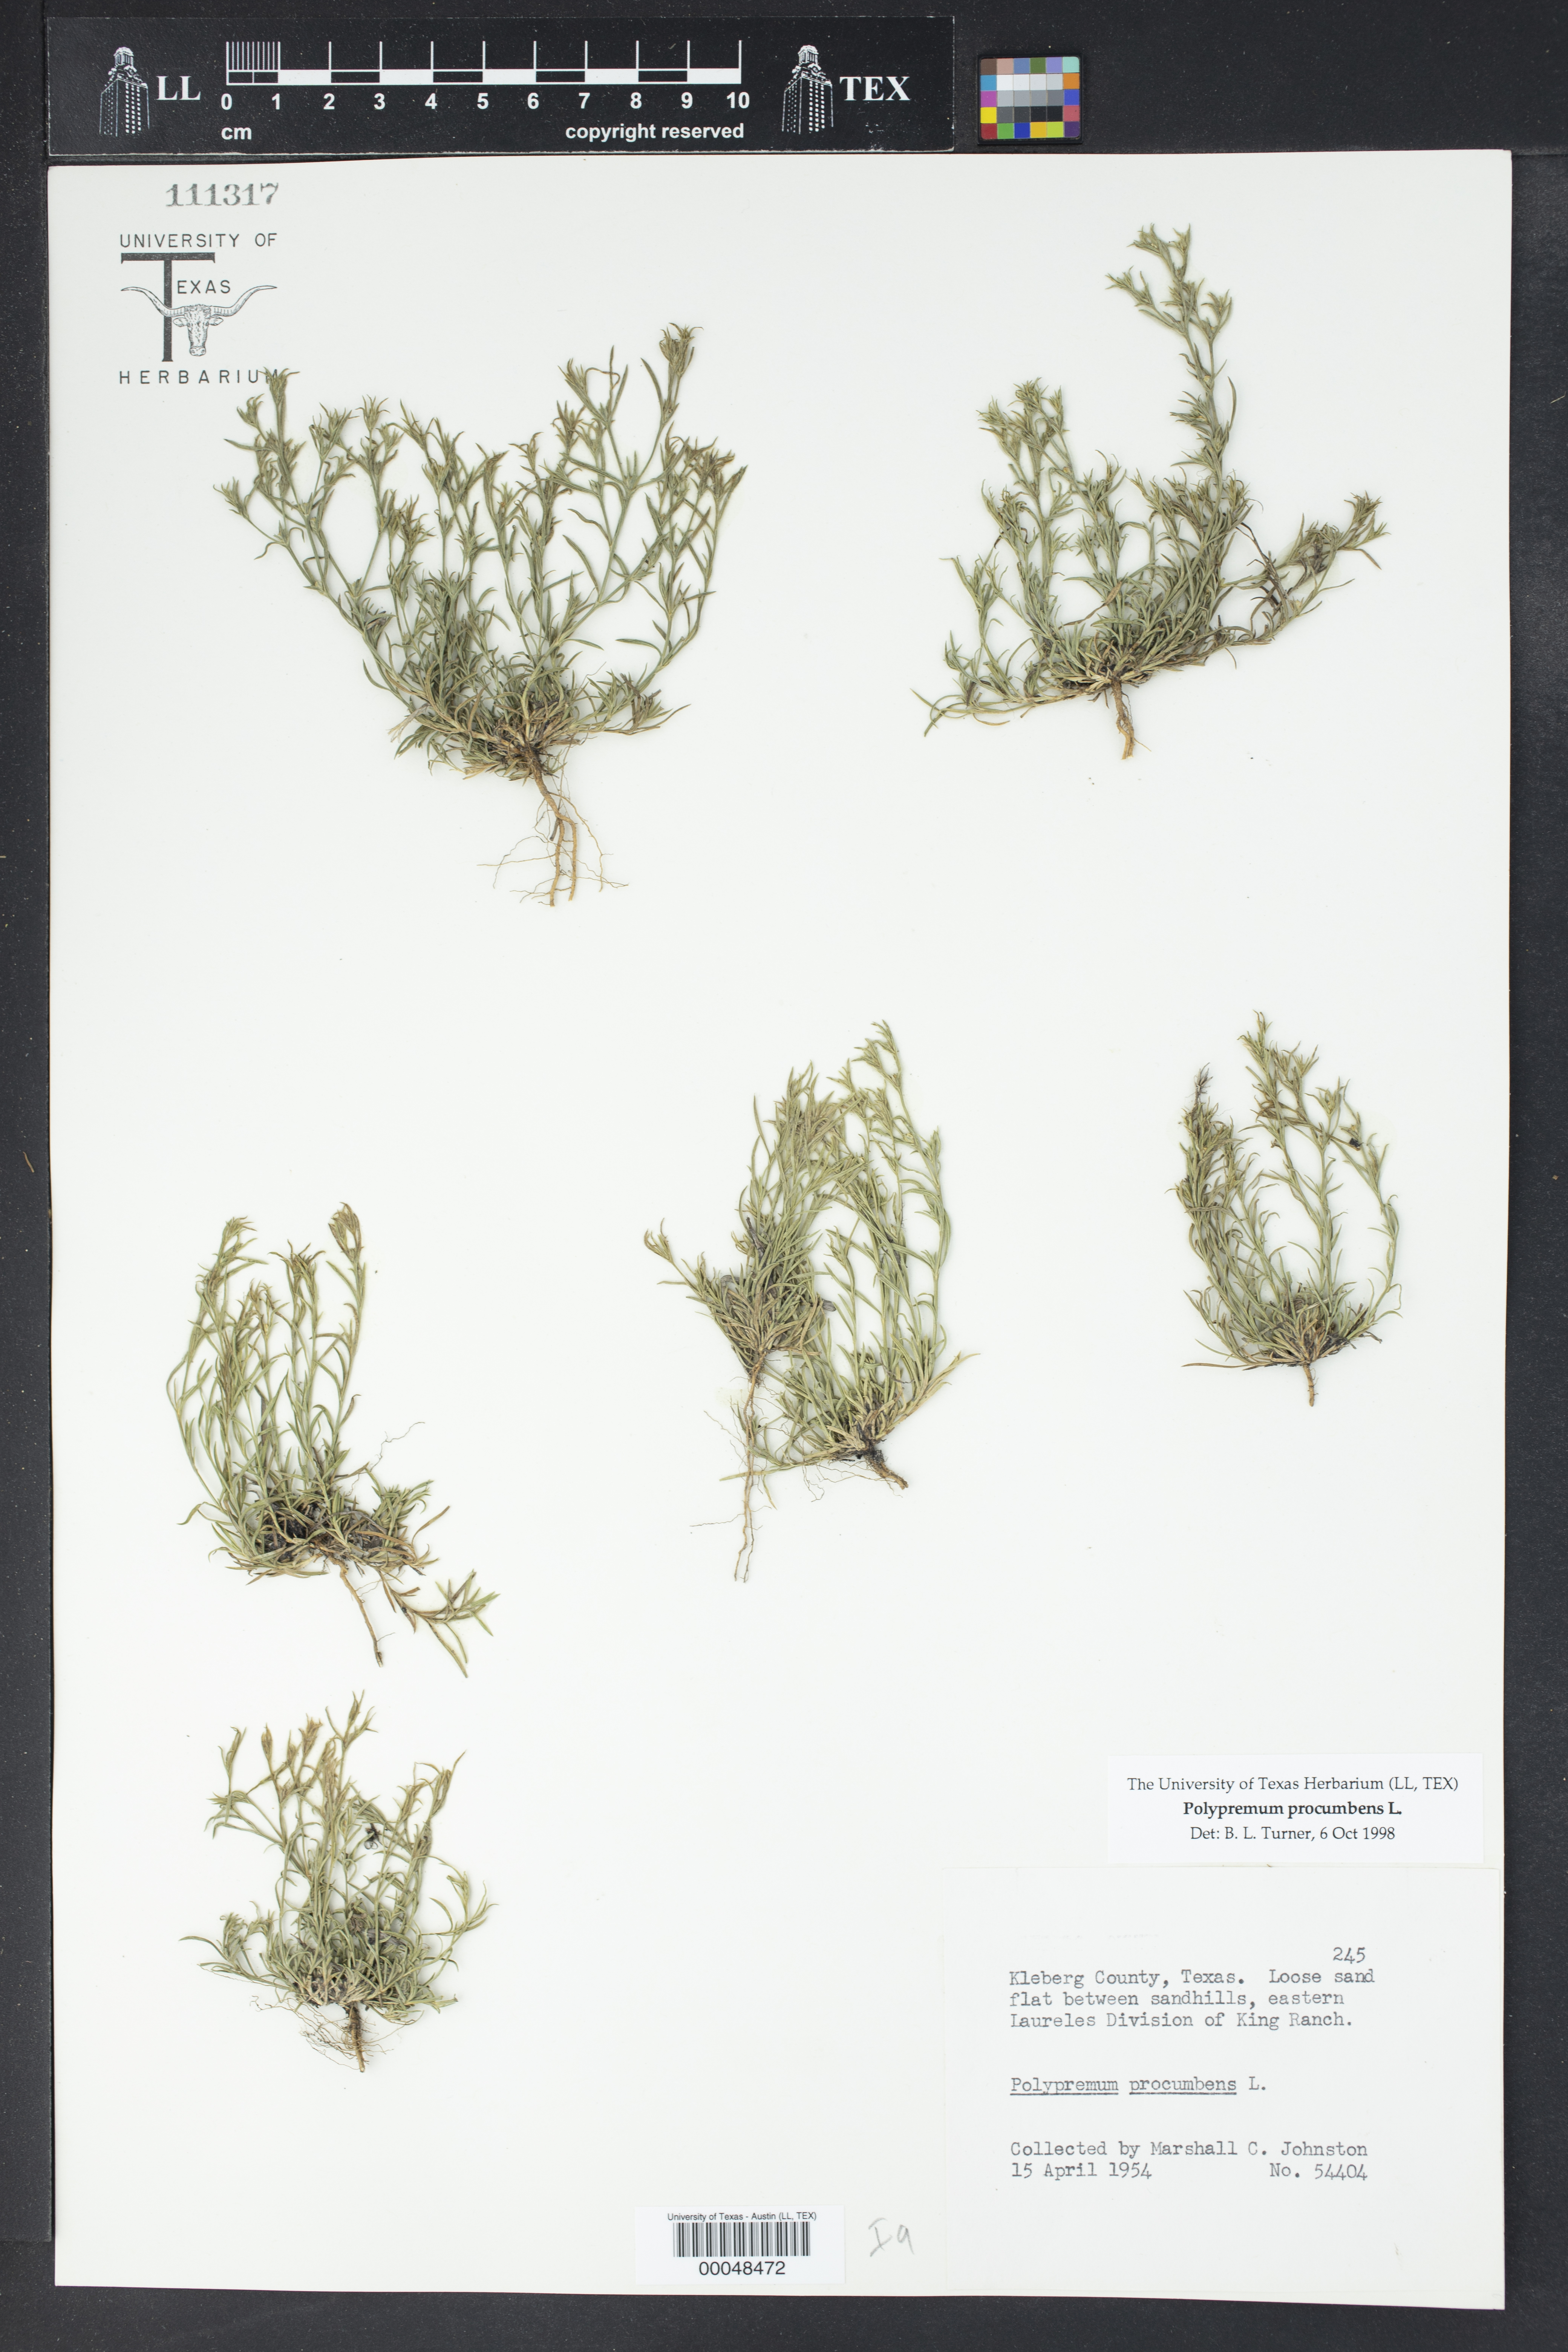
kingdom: Plantae
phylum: Tracheophyta
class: Magnoliopsida
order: Lamiales
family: Tetrachondraceae
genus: Polypremum
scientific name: Polypremum procumbens
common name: Juniper-leaf
